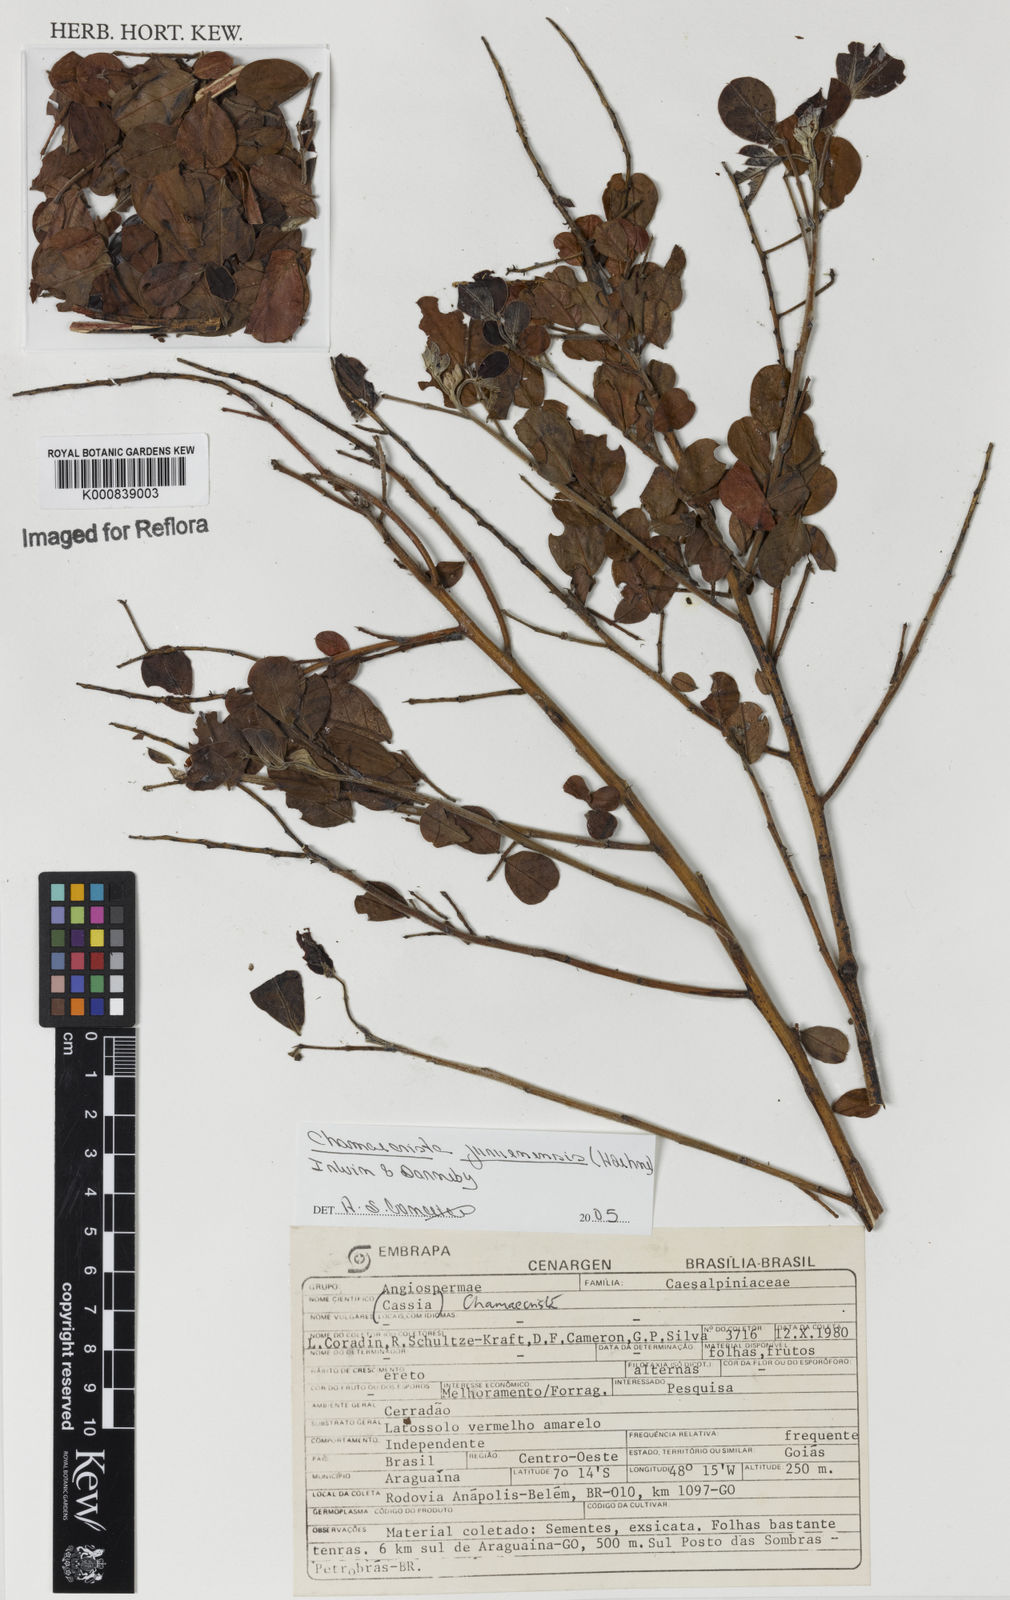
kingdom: Plantae
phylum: Tracheophyta
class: Magnoliopsida
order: Fabales
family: Fabaceae
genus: Chamaecrista
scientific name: Chamaecrista juruenensis
